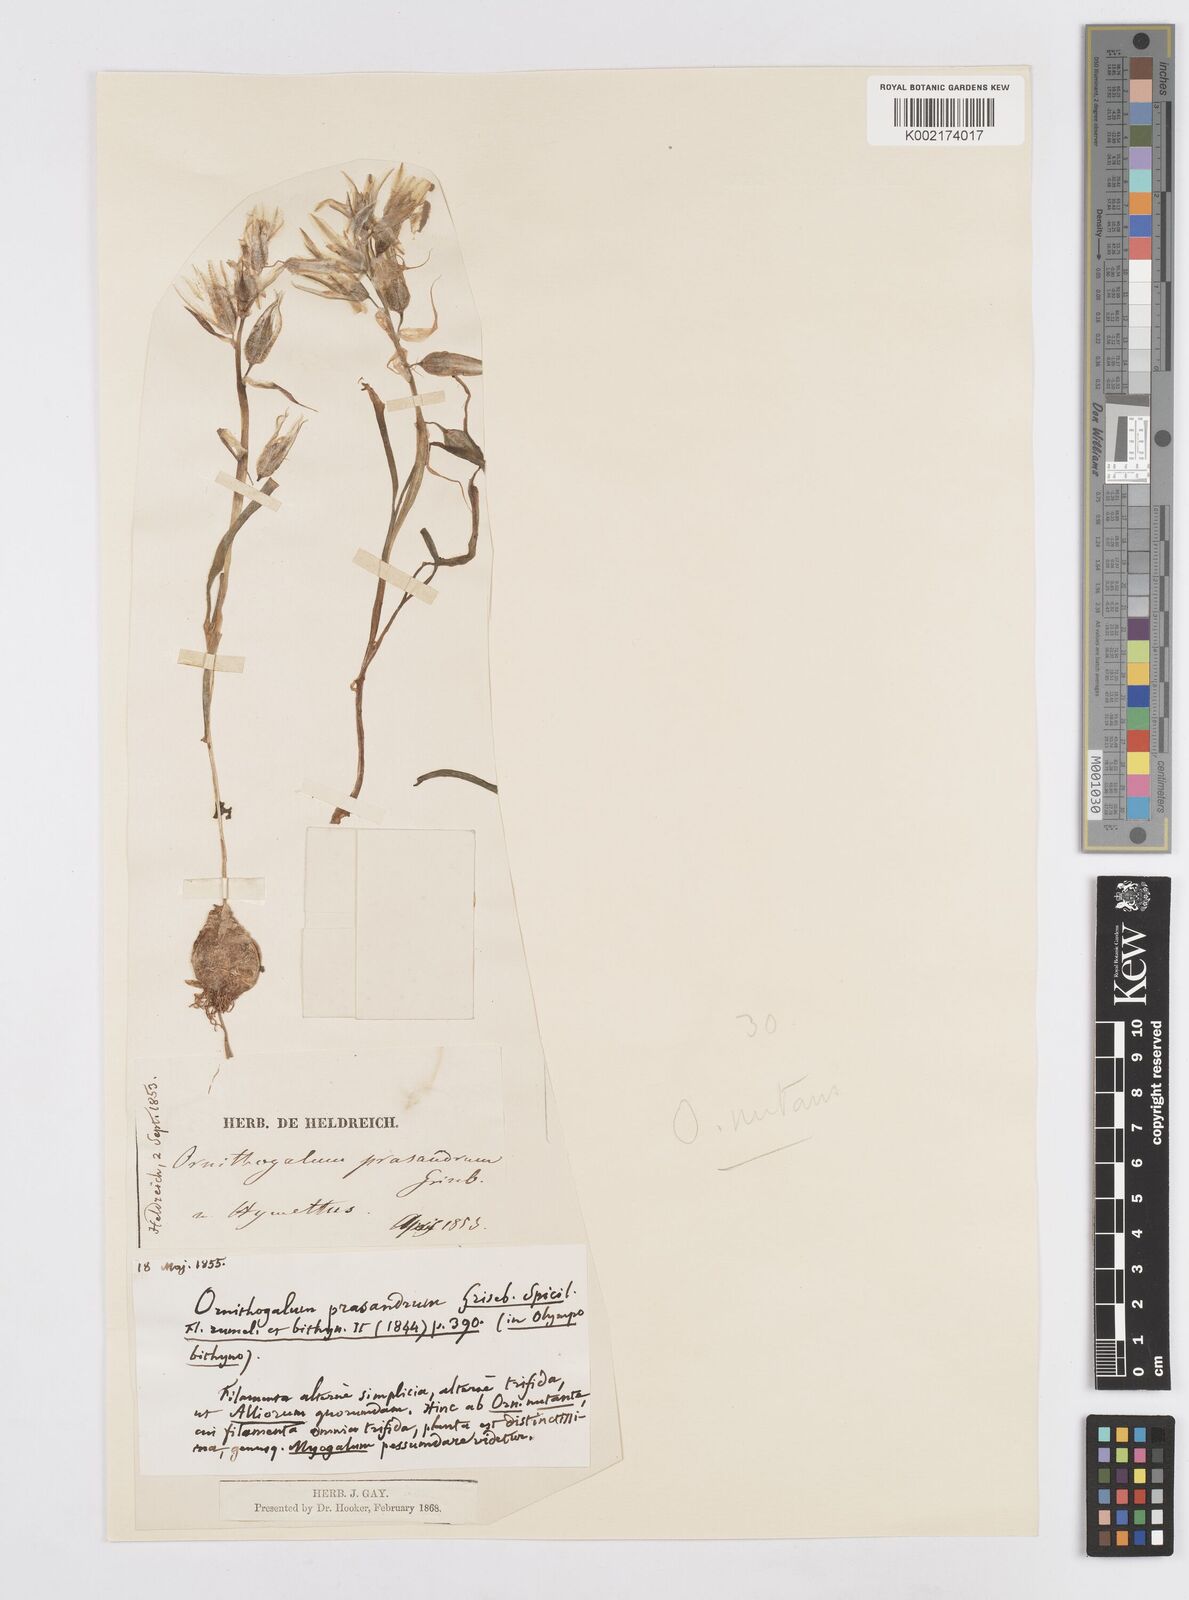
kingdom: Plantae
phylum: Tracheophyta
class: Liliopsida
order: Asparagales
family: Asparagaceae
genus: Ornithogalum
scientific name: Ornithogalum nutans
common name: Drooping star-of-bethlehem
